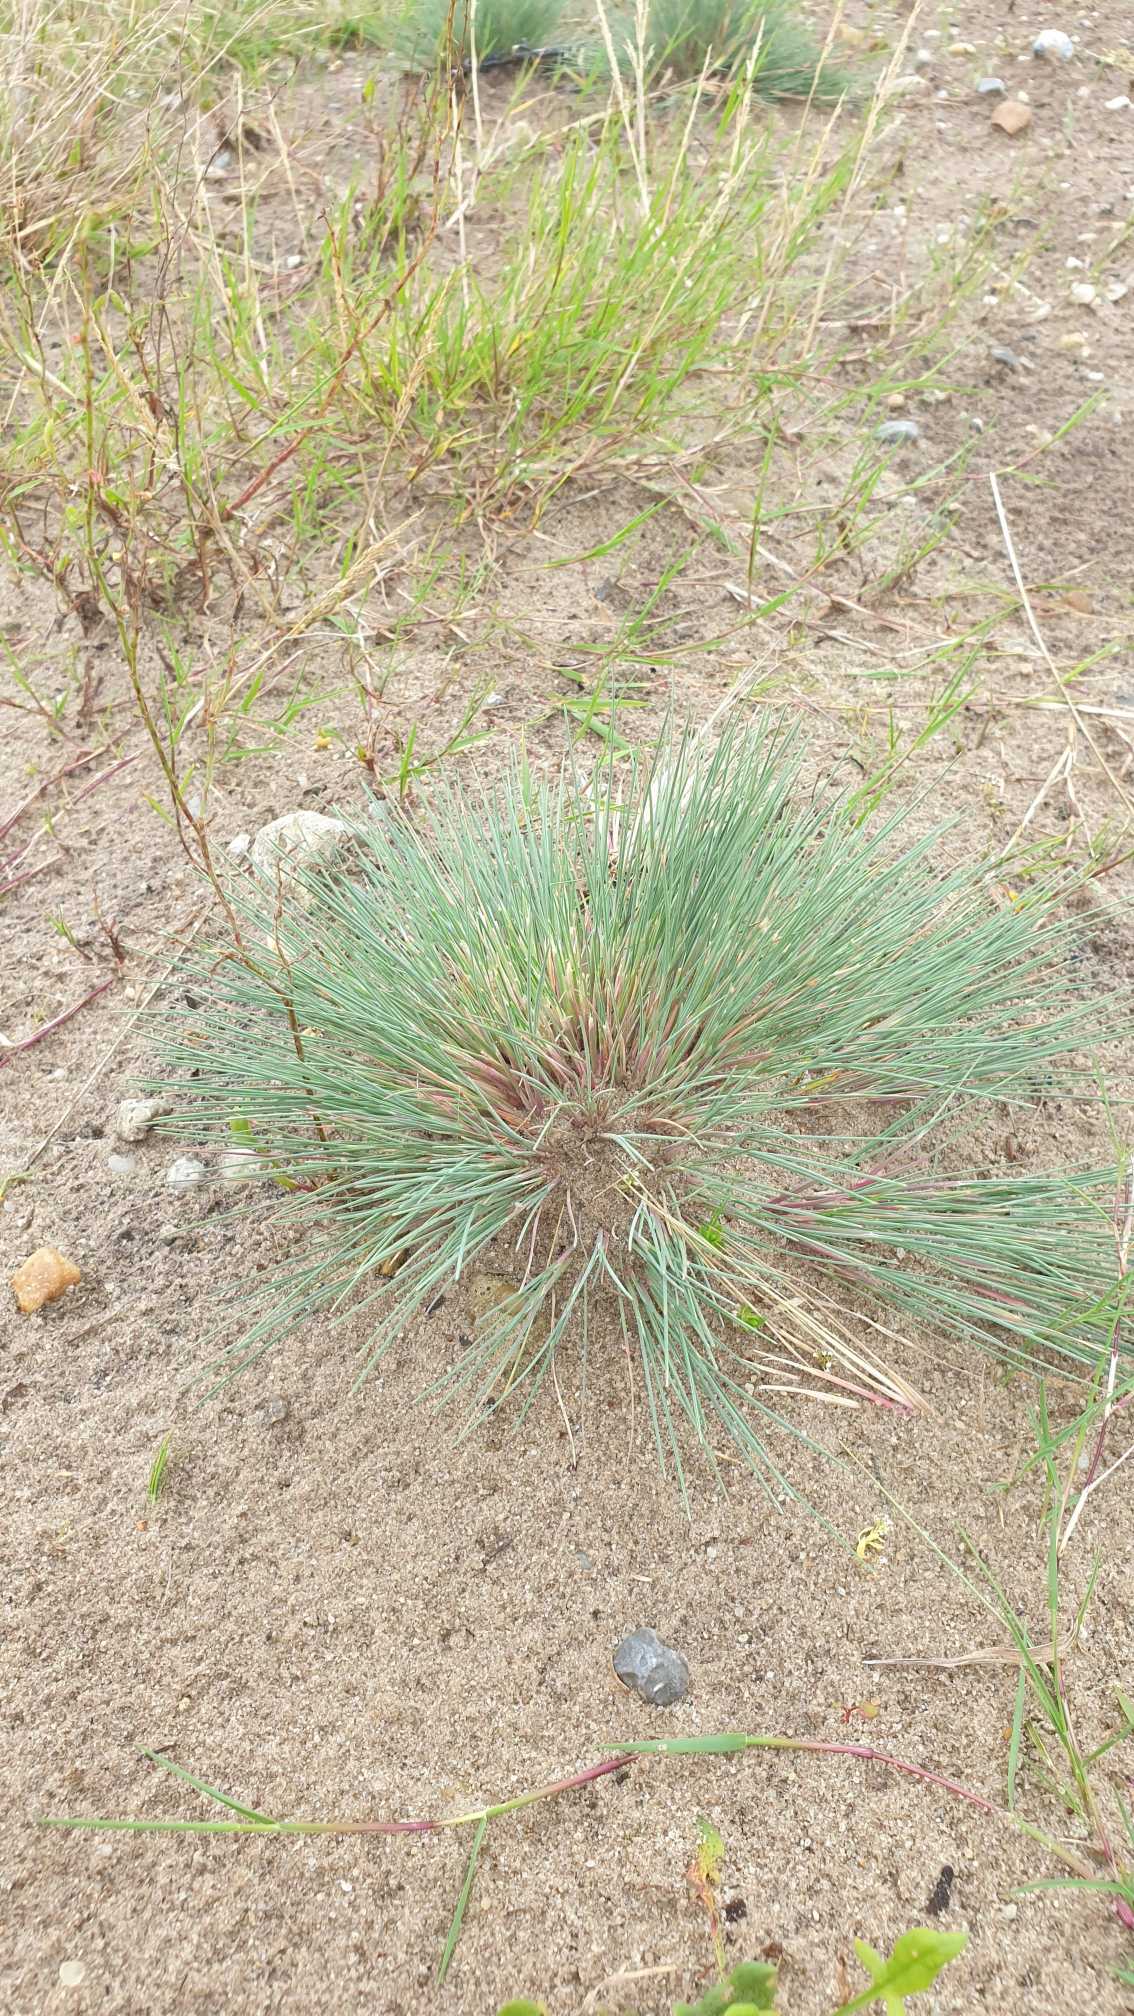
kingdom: Plantae
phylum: Tracheophyta
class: Liliopsida
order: Poales
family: Poaceae
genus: Corynephorus
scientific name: Corynephorus canescens
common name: Sandskæg
